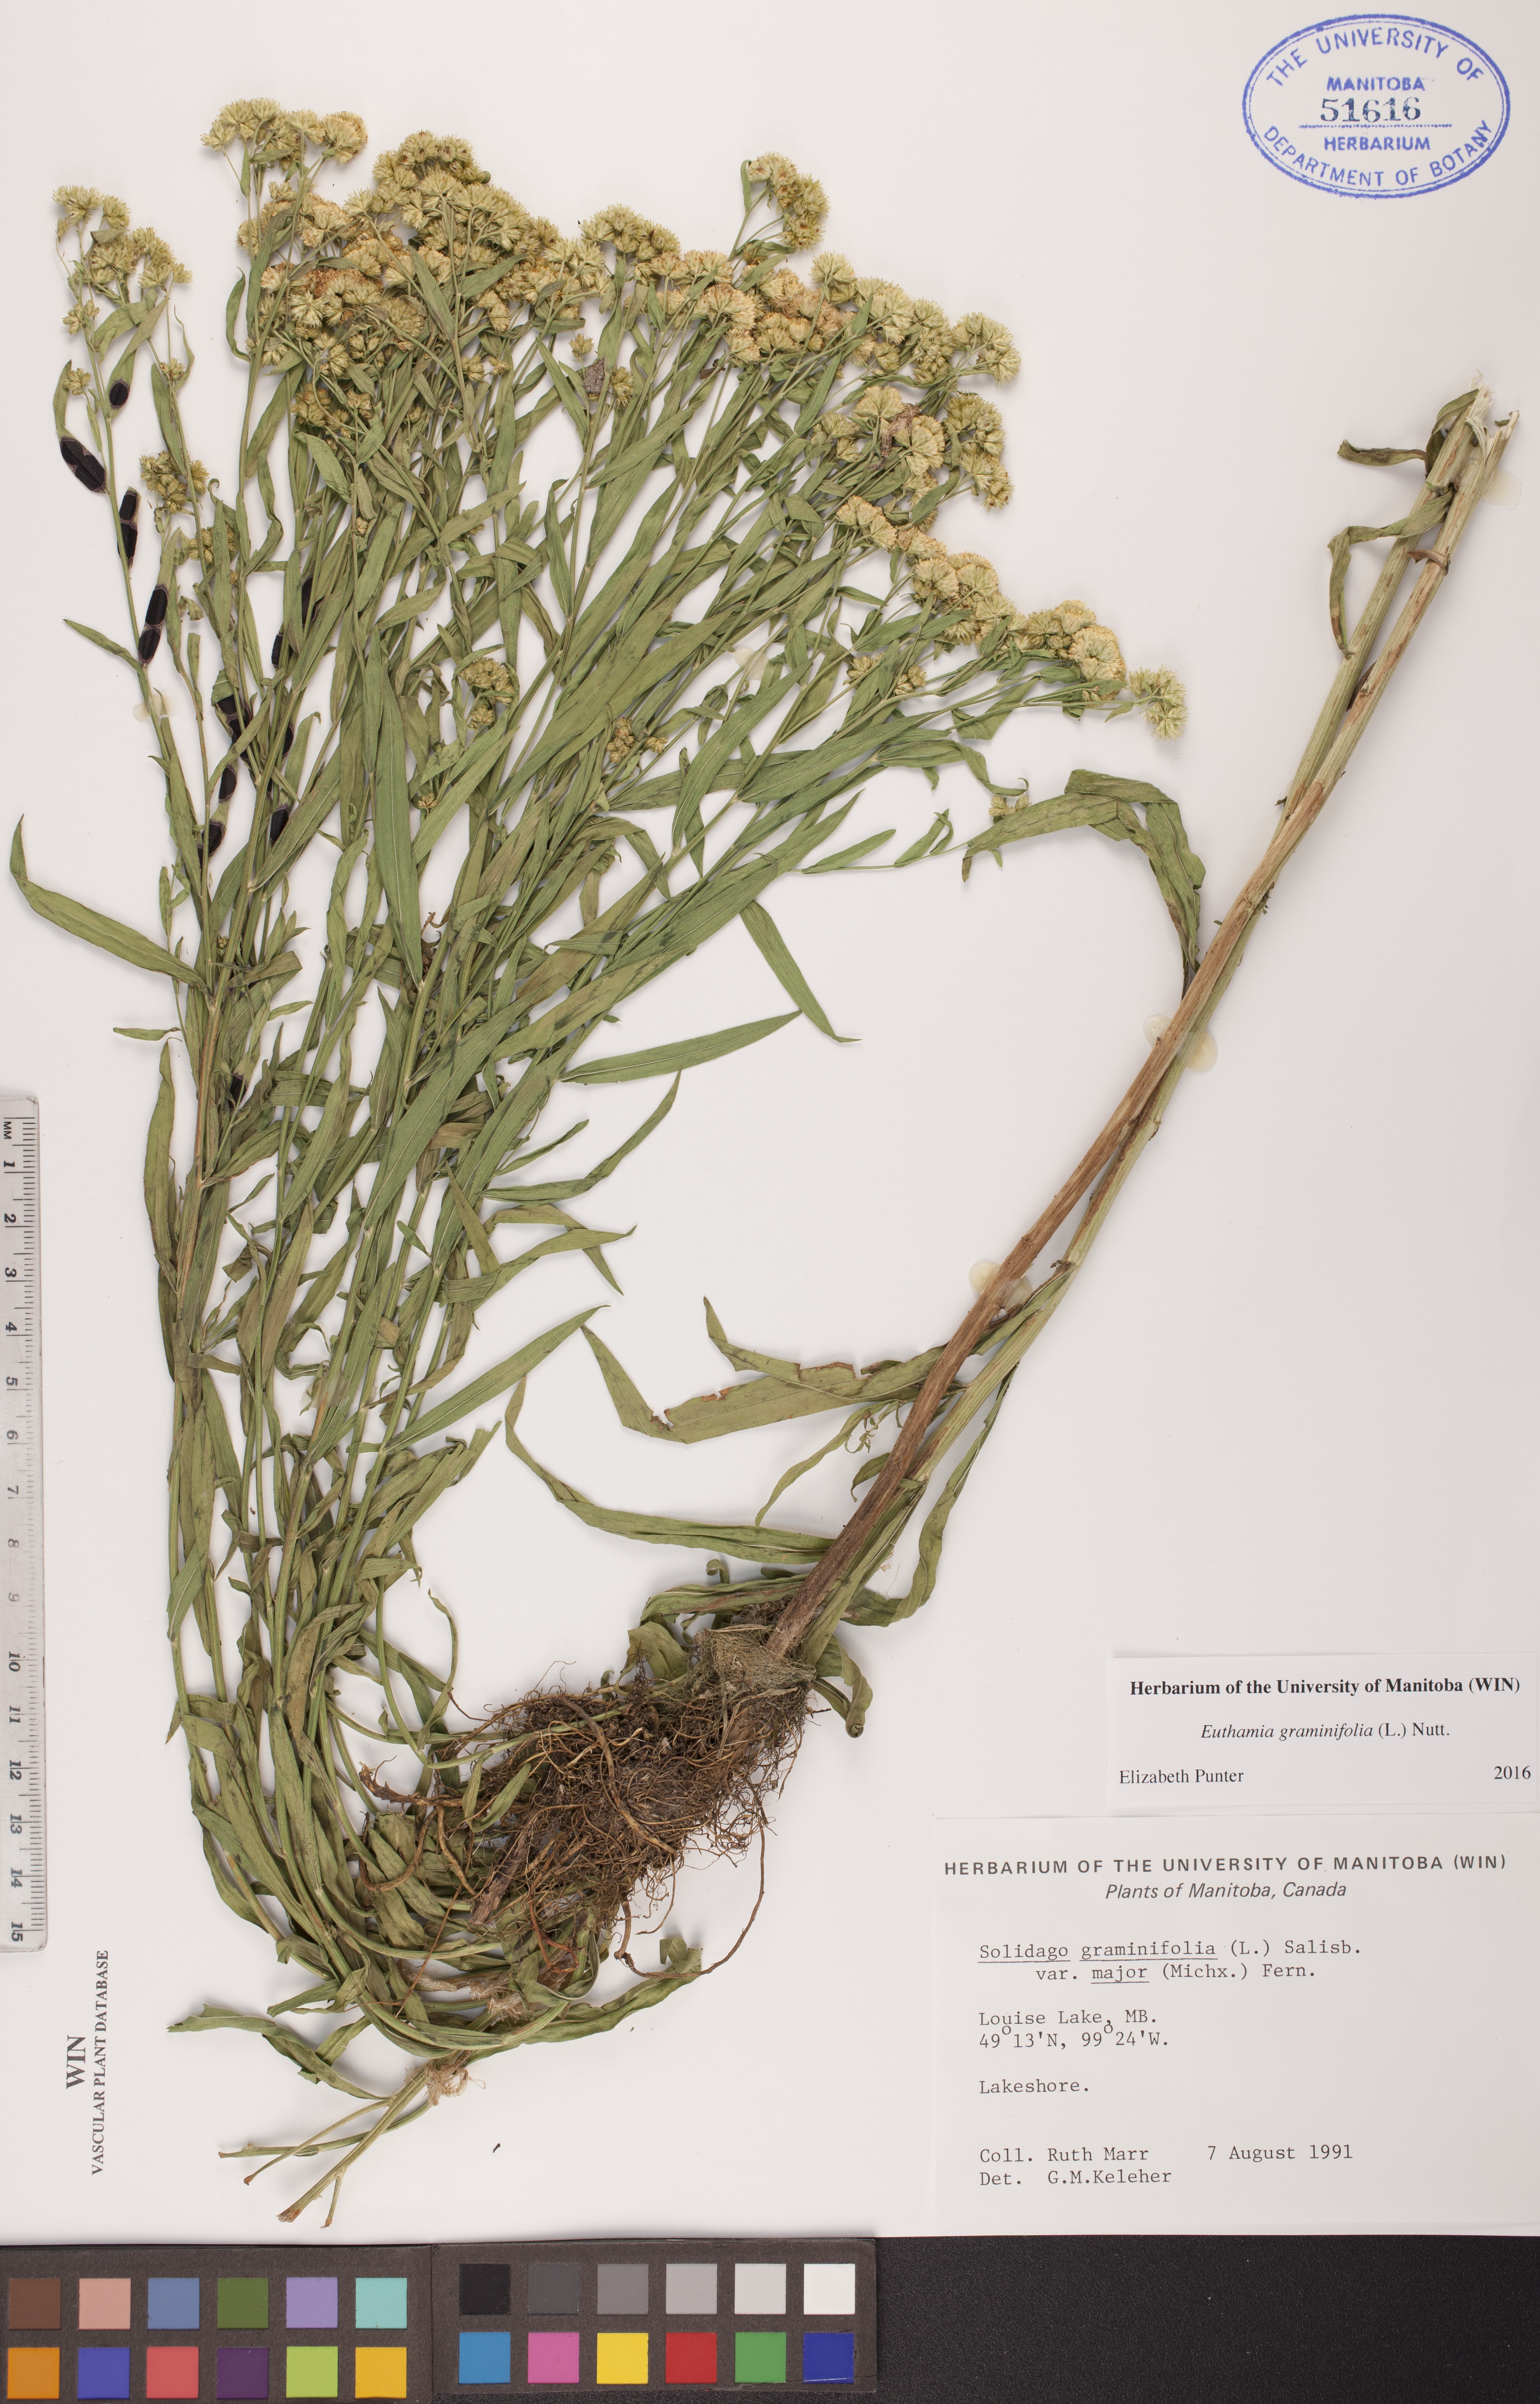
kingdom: Plantae
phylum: Tracheophyta
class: Magnoliopsida
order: Asterales
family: Asteraceae
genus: Euthamia
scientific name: Euthamia graminifolia
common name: Common goldentop
